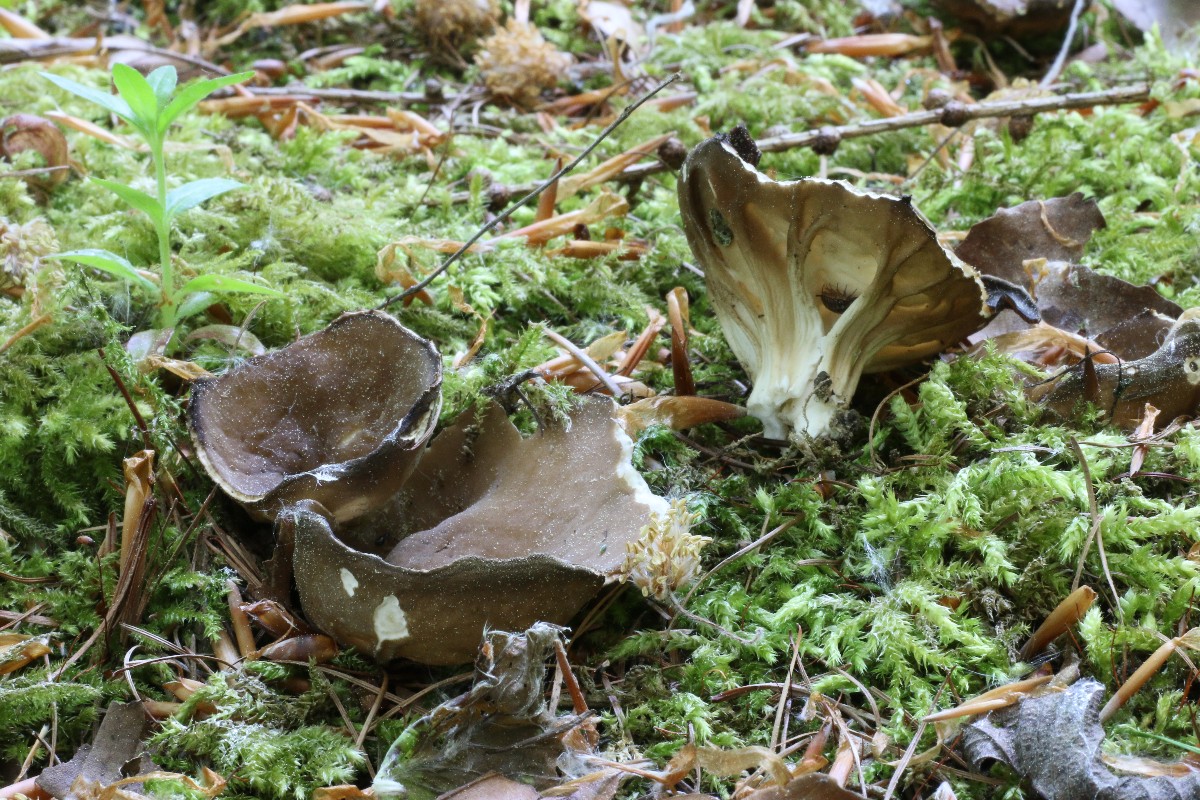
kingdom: Fungi
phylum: Ascomycota
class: Pezizomycetes
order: Pezizales
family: Helvellaceae
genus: Helvella
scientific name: Helvella
